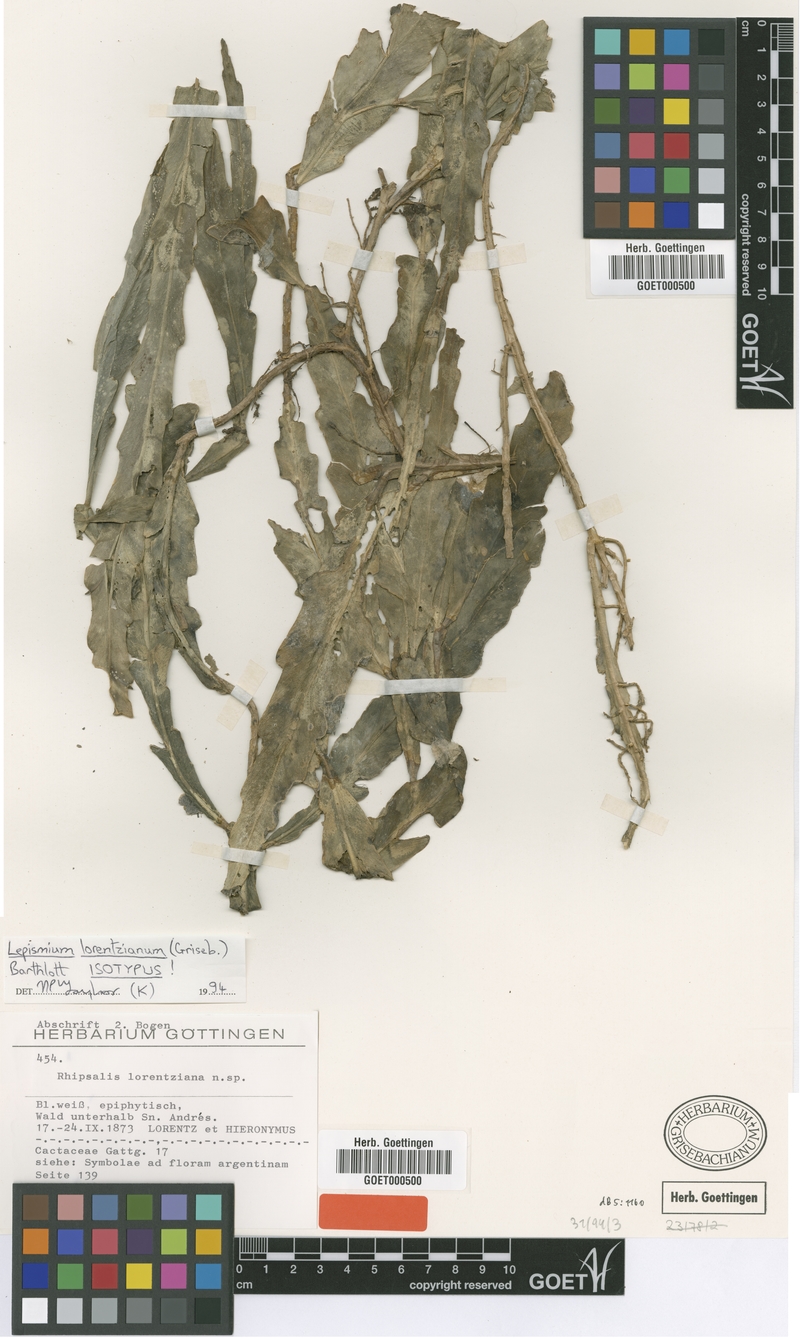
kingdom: Plantae
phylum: Tracheophyta
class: Magnoliopsida
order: Caryophyllales
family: Cactaceae
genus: Lepismium
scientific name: Lepismium lorentzianum
